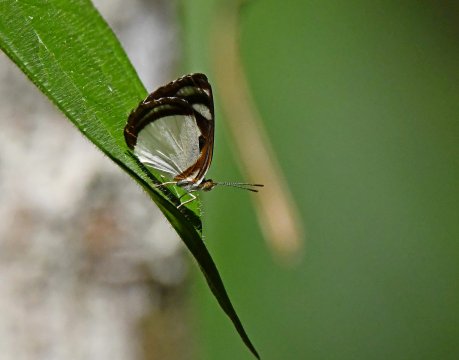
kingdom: Animalia
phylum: Arthropoda
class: Insecta
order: Lepidoptera
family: Nymphalidae
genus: Dynamine
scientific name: Dynamine athemon
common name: Ghost Sailor
